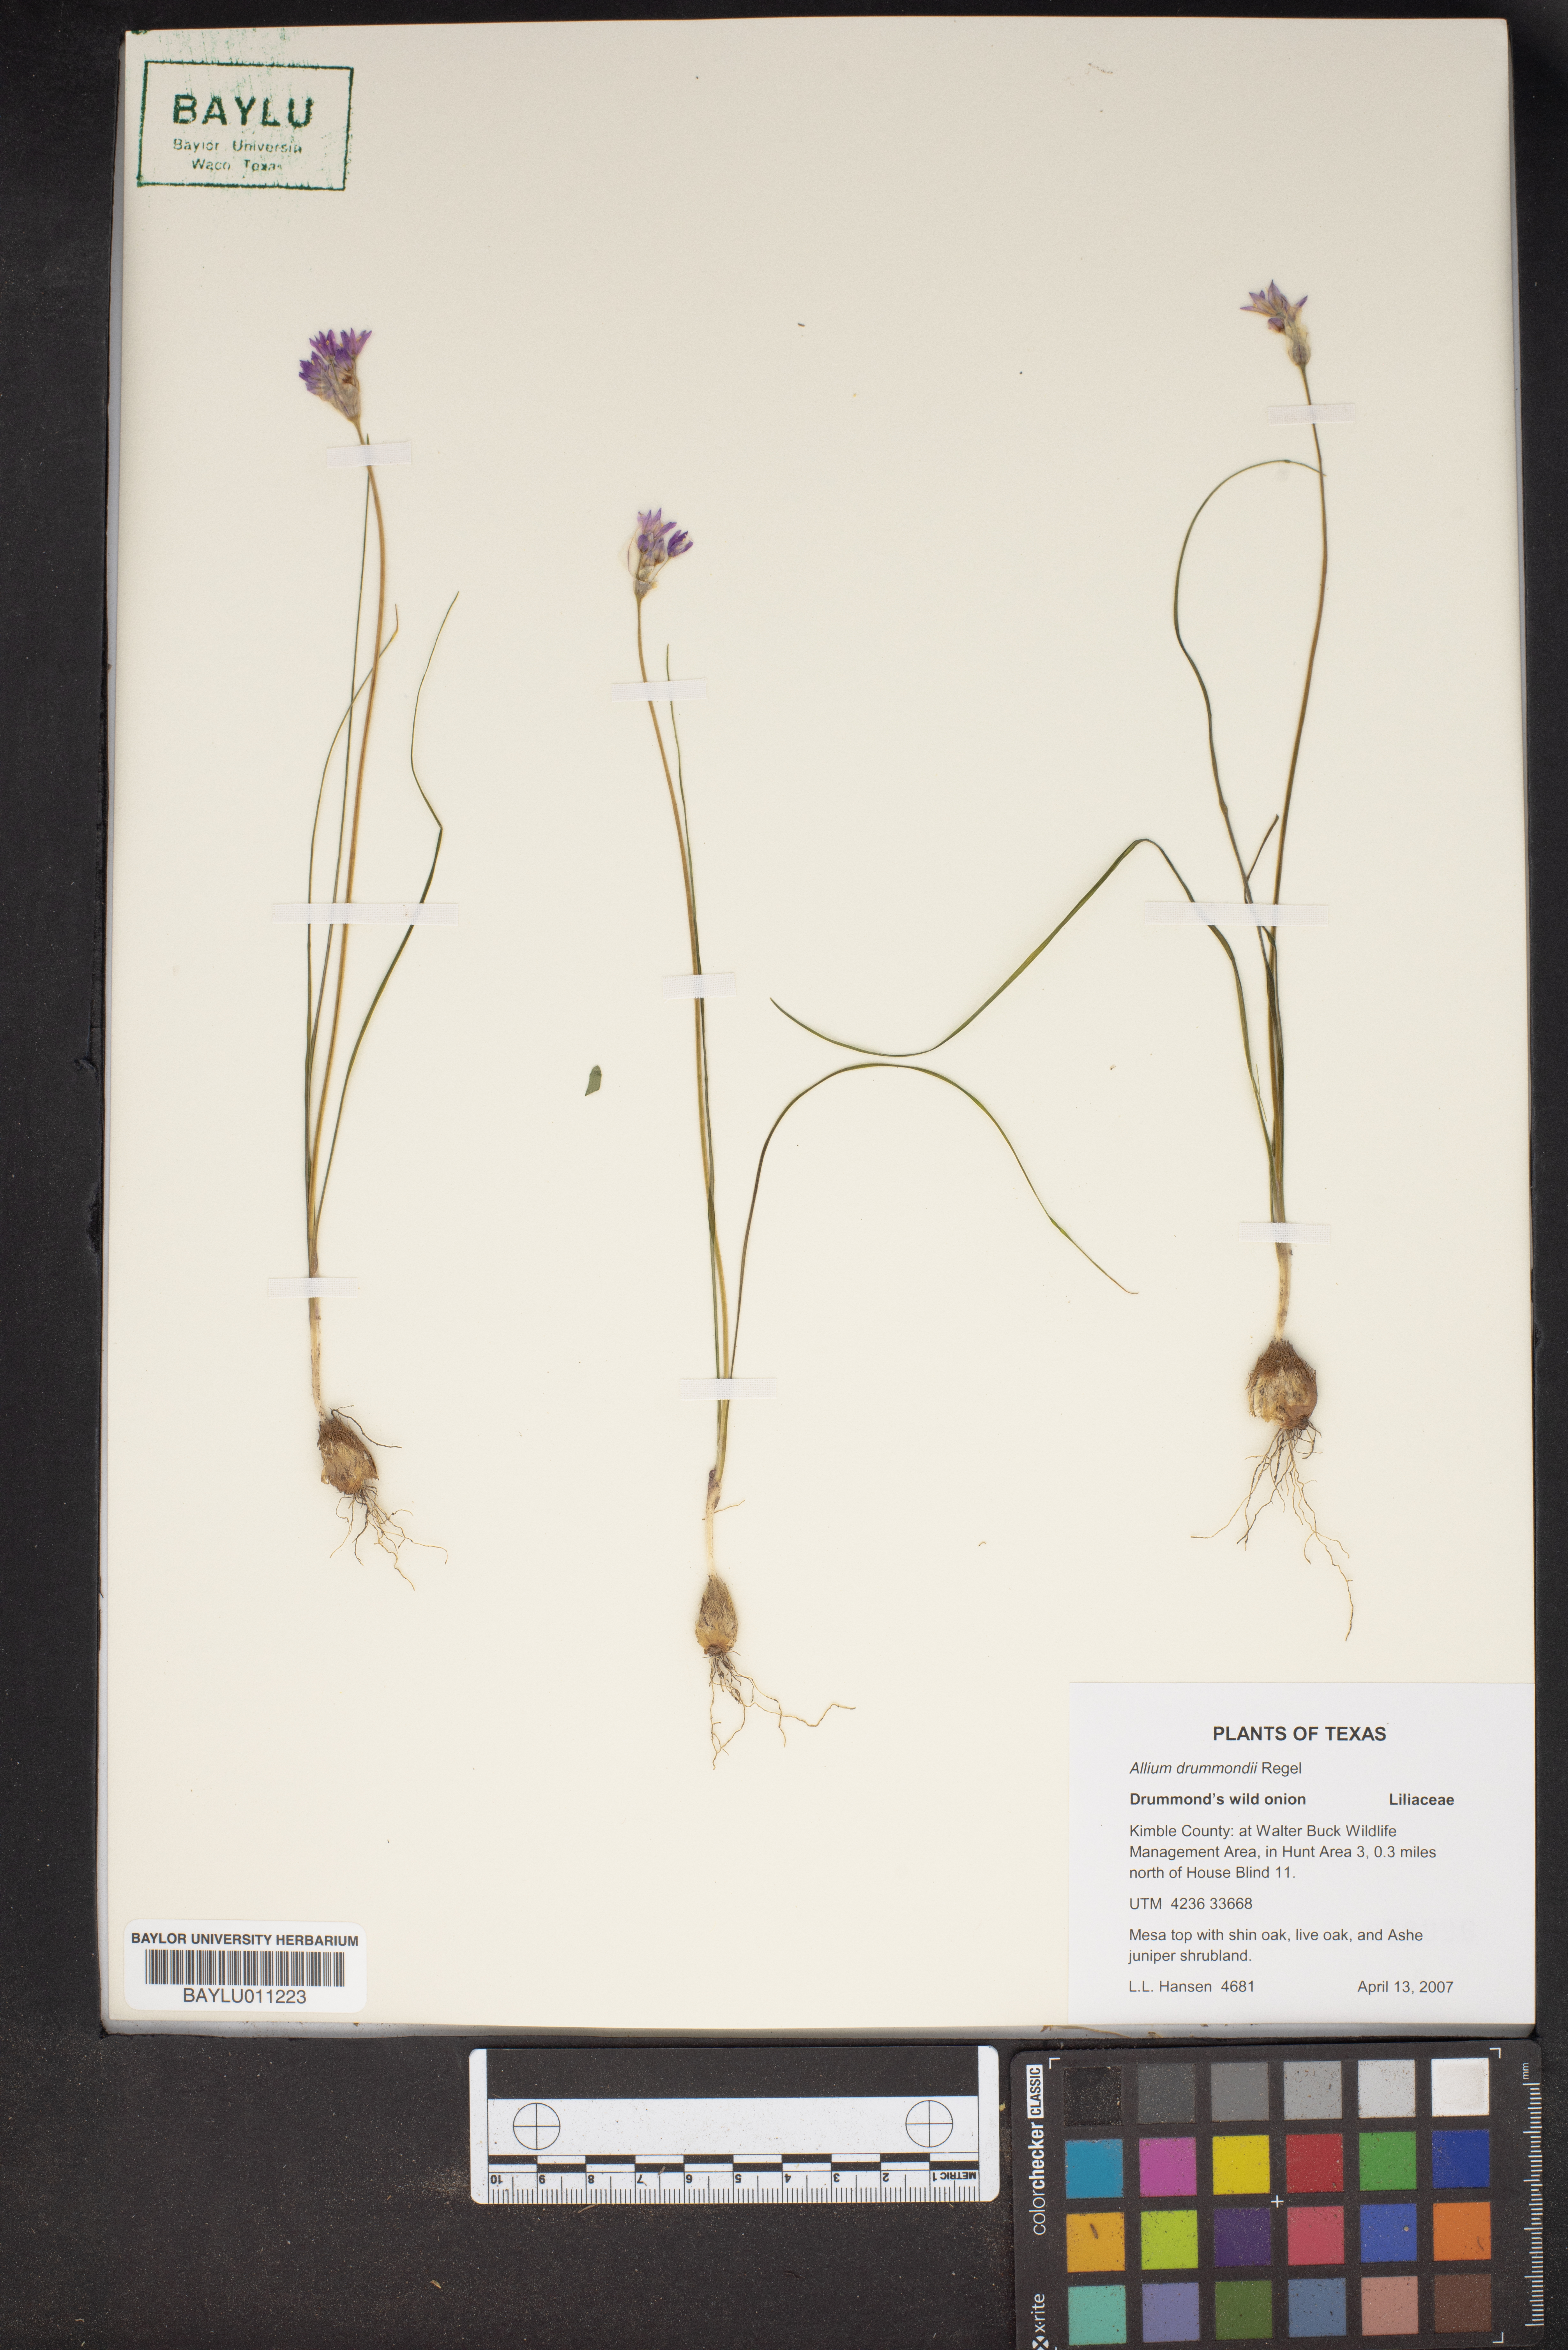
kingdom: Plantae
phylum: Tracheophyta
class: Liliopsida
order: Asparagales
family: Amaryllidaceae
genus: Allium
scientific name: Allium drummondii
